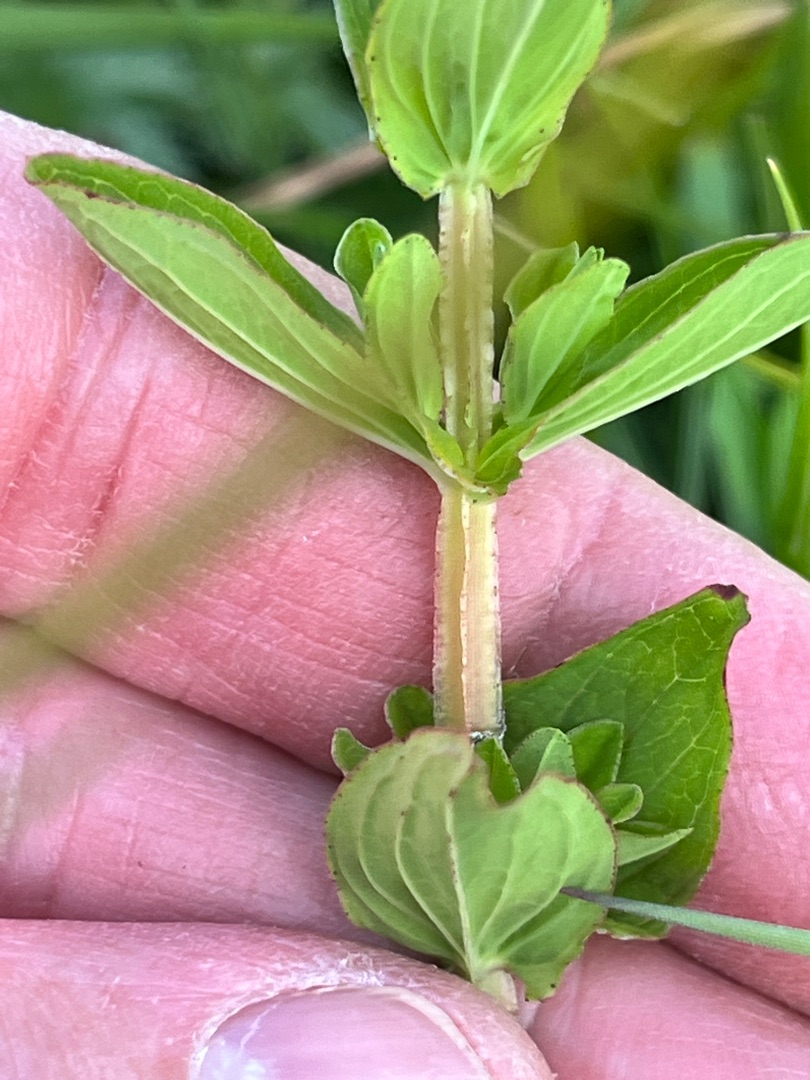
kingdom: Plantae
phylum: Tracheophyta
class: Magnoliopsida
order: Malpighiales
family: Hypericaceae
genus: Hypericum
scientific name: Hypericum tetrapterum
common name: Vinget perikon
